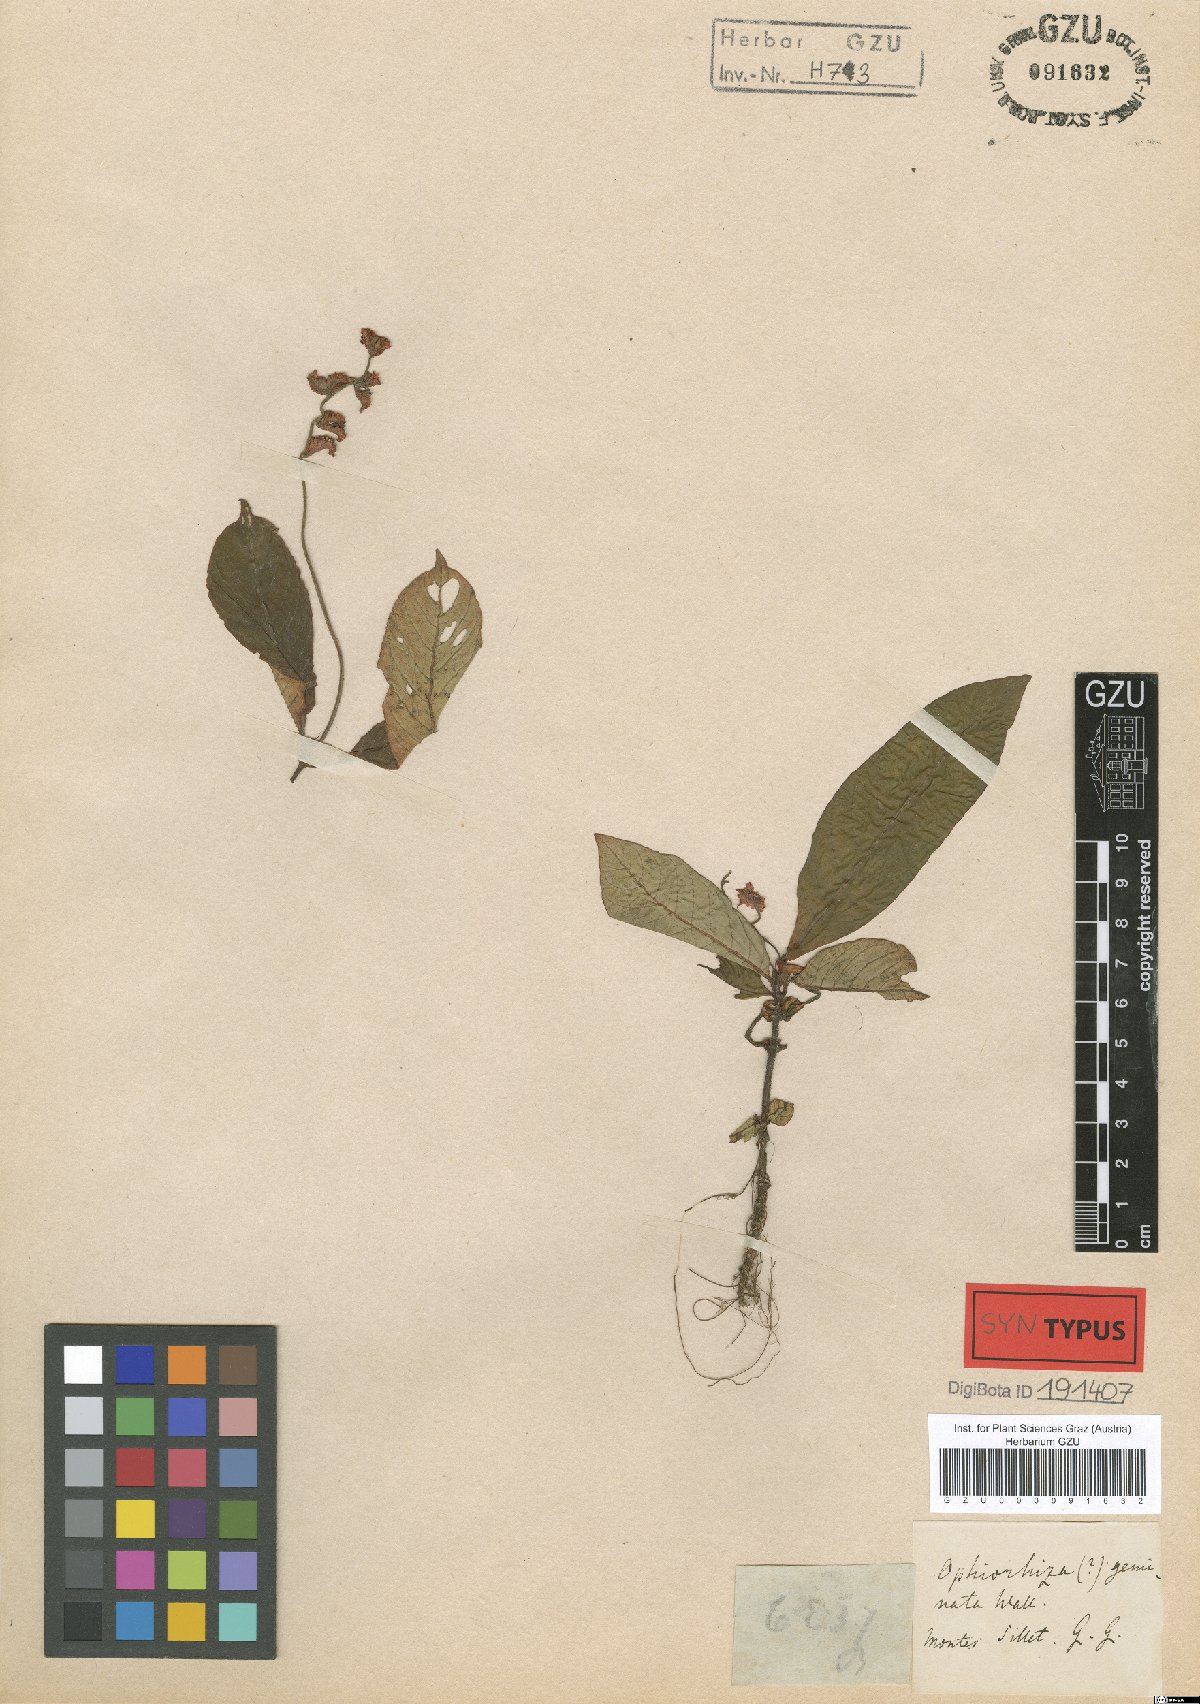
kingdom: Plantae
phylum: Tracheophyta
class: Magnoliopsida
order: Gentianales
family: Rubiaceae
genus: Polyura
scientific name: Polyura geminata
